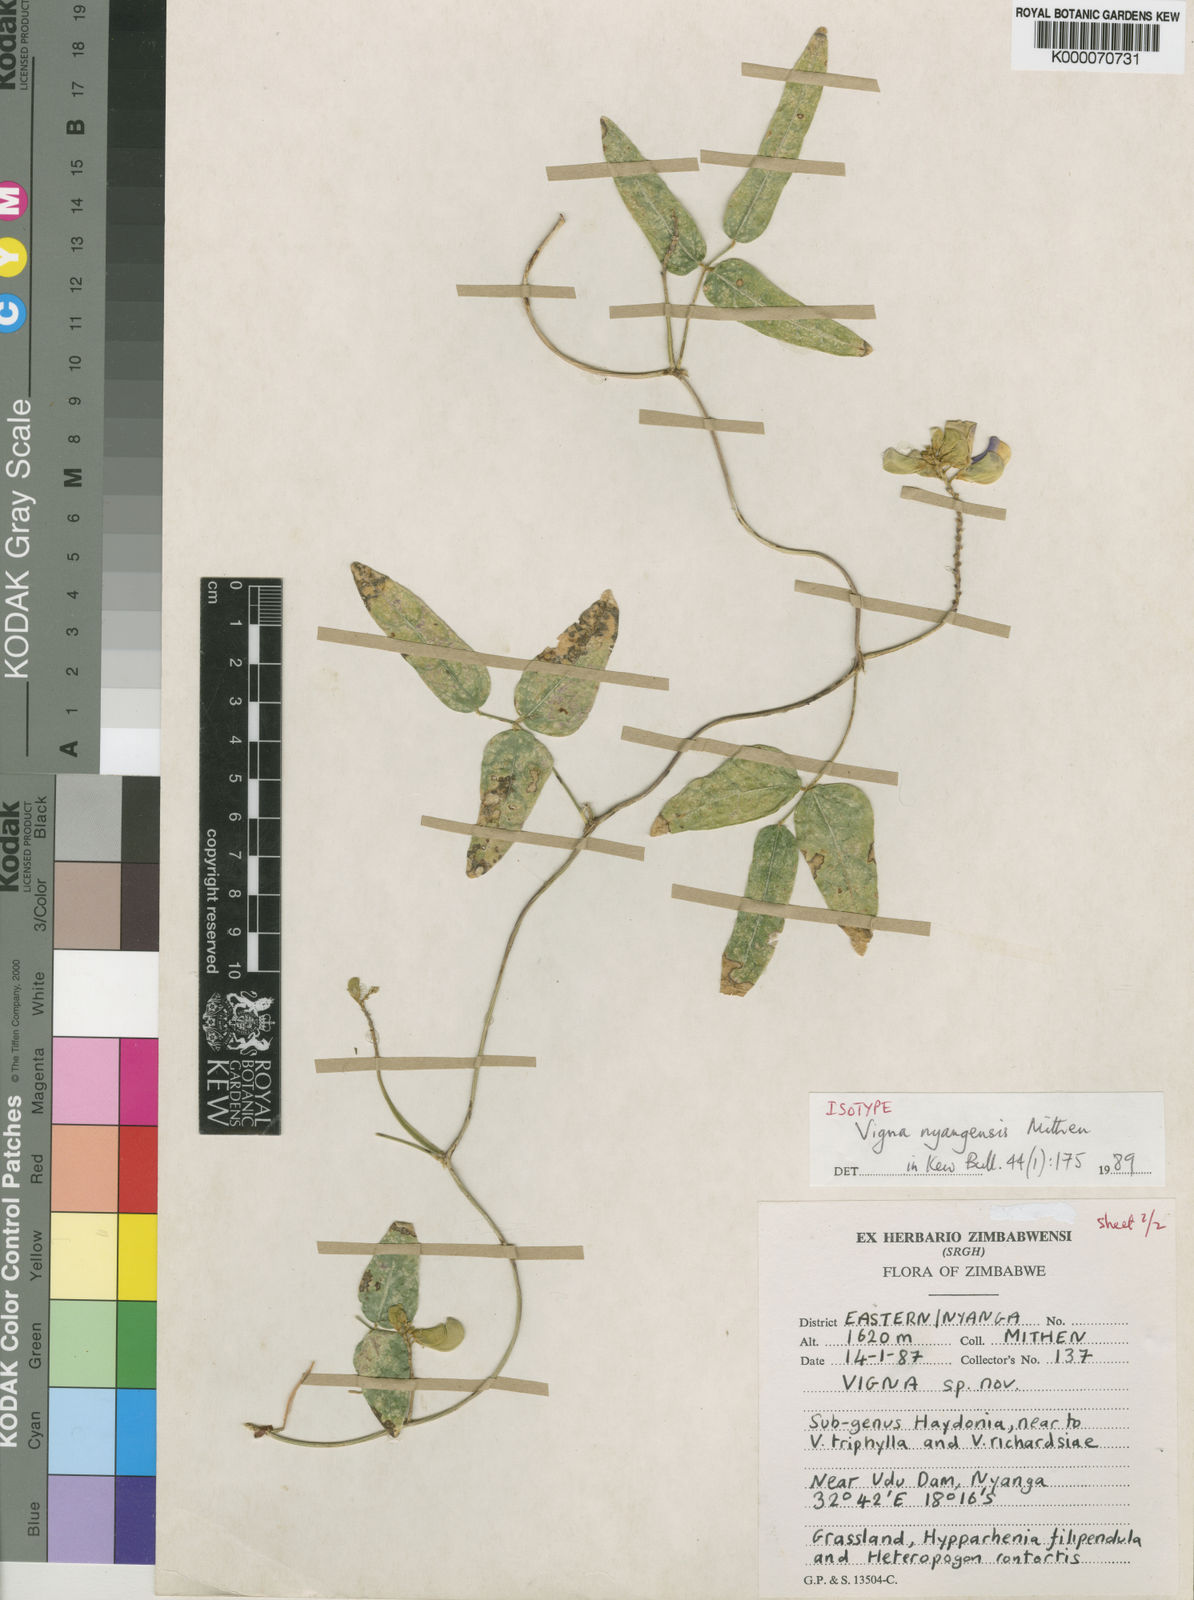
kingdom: Plantae
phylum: Tracheophyta
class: Magnoliopsida
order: Fabales
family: Fabaceae
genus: Vigna
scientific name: Vigna nyangensis
